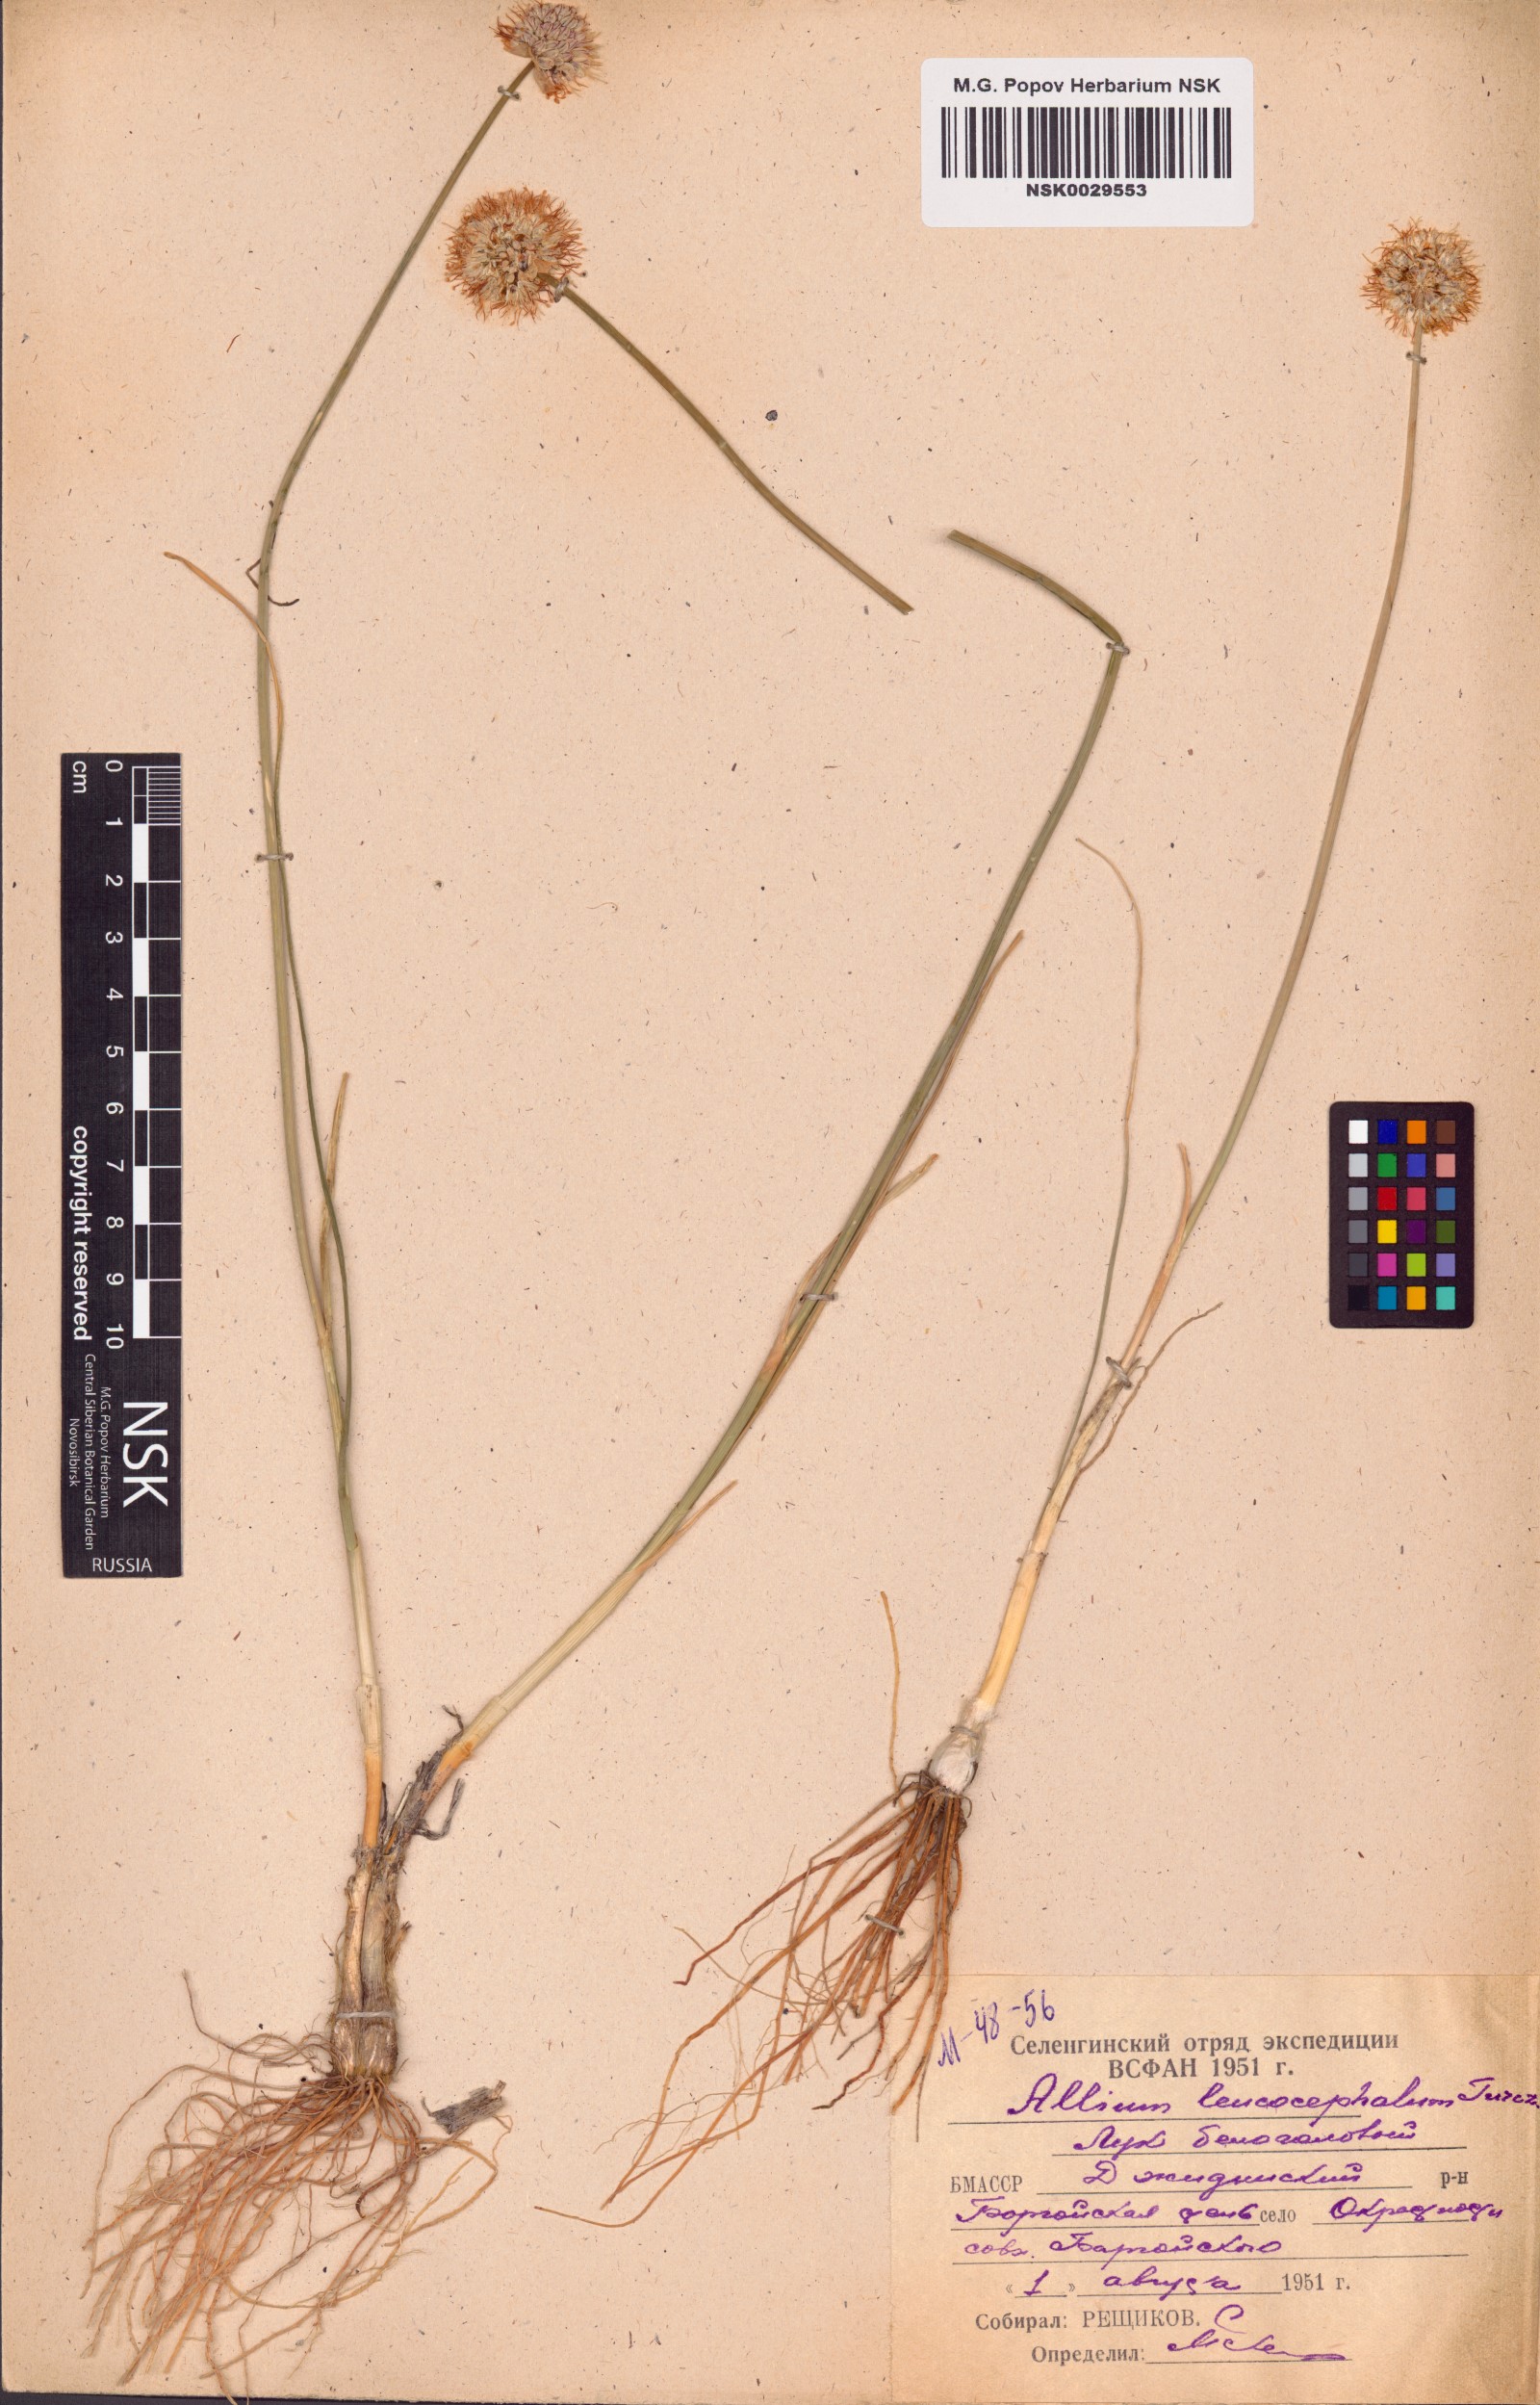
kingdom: Plantae
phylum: Tracheophyta
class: Liliopsida
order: Asparagales
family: Amaryllidaceae
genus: Allium
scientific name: Allium leucocephalum
